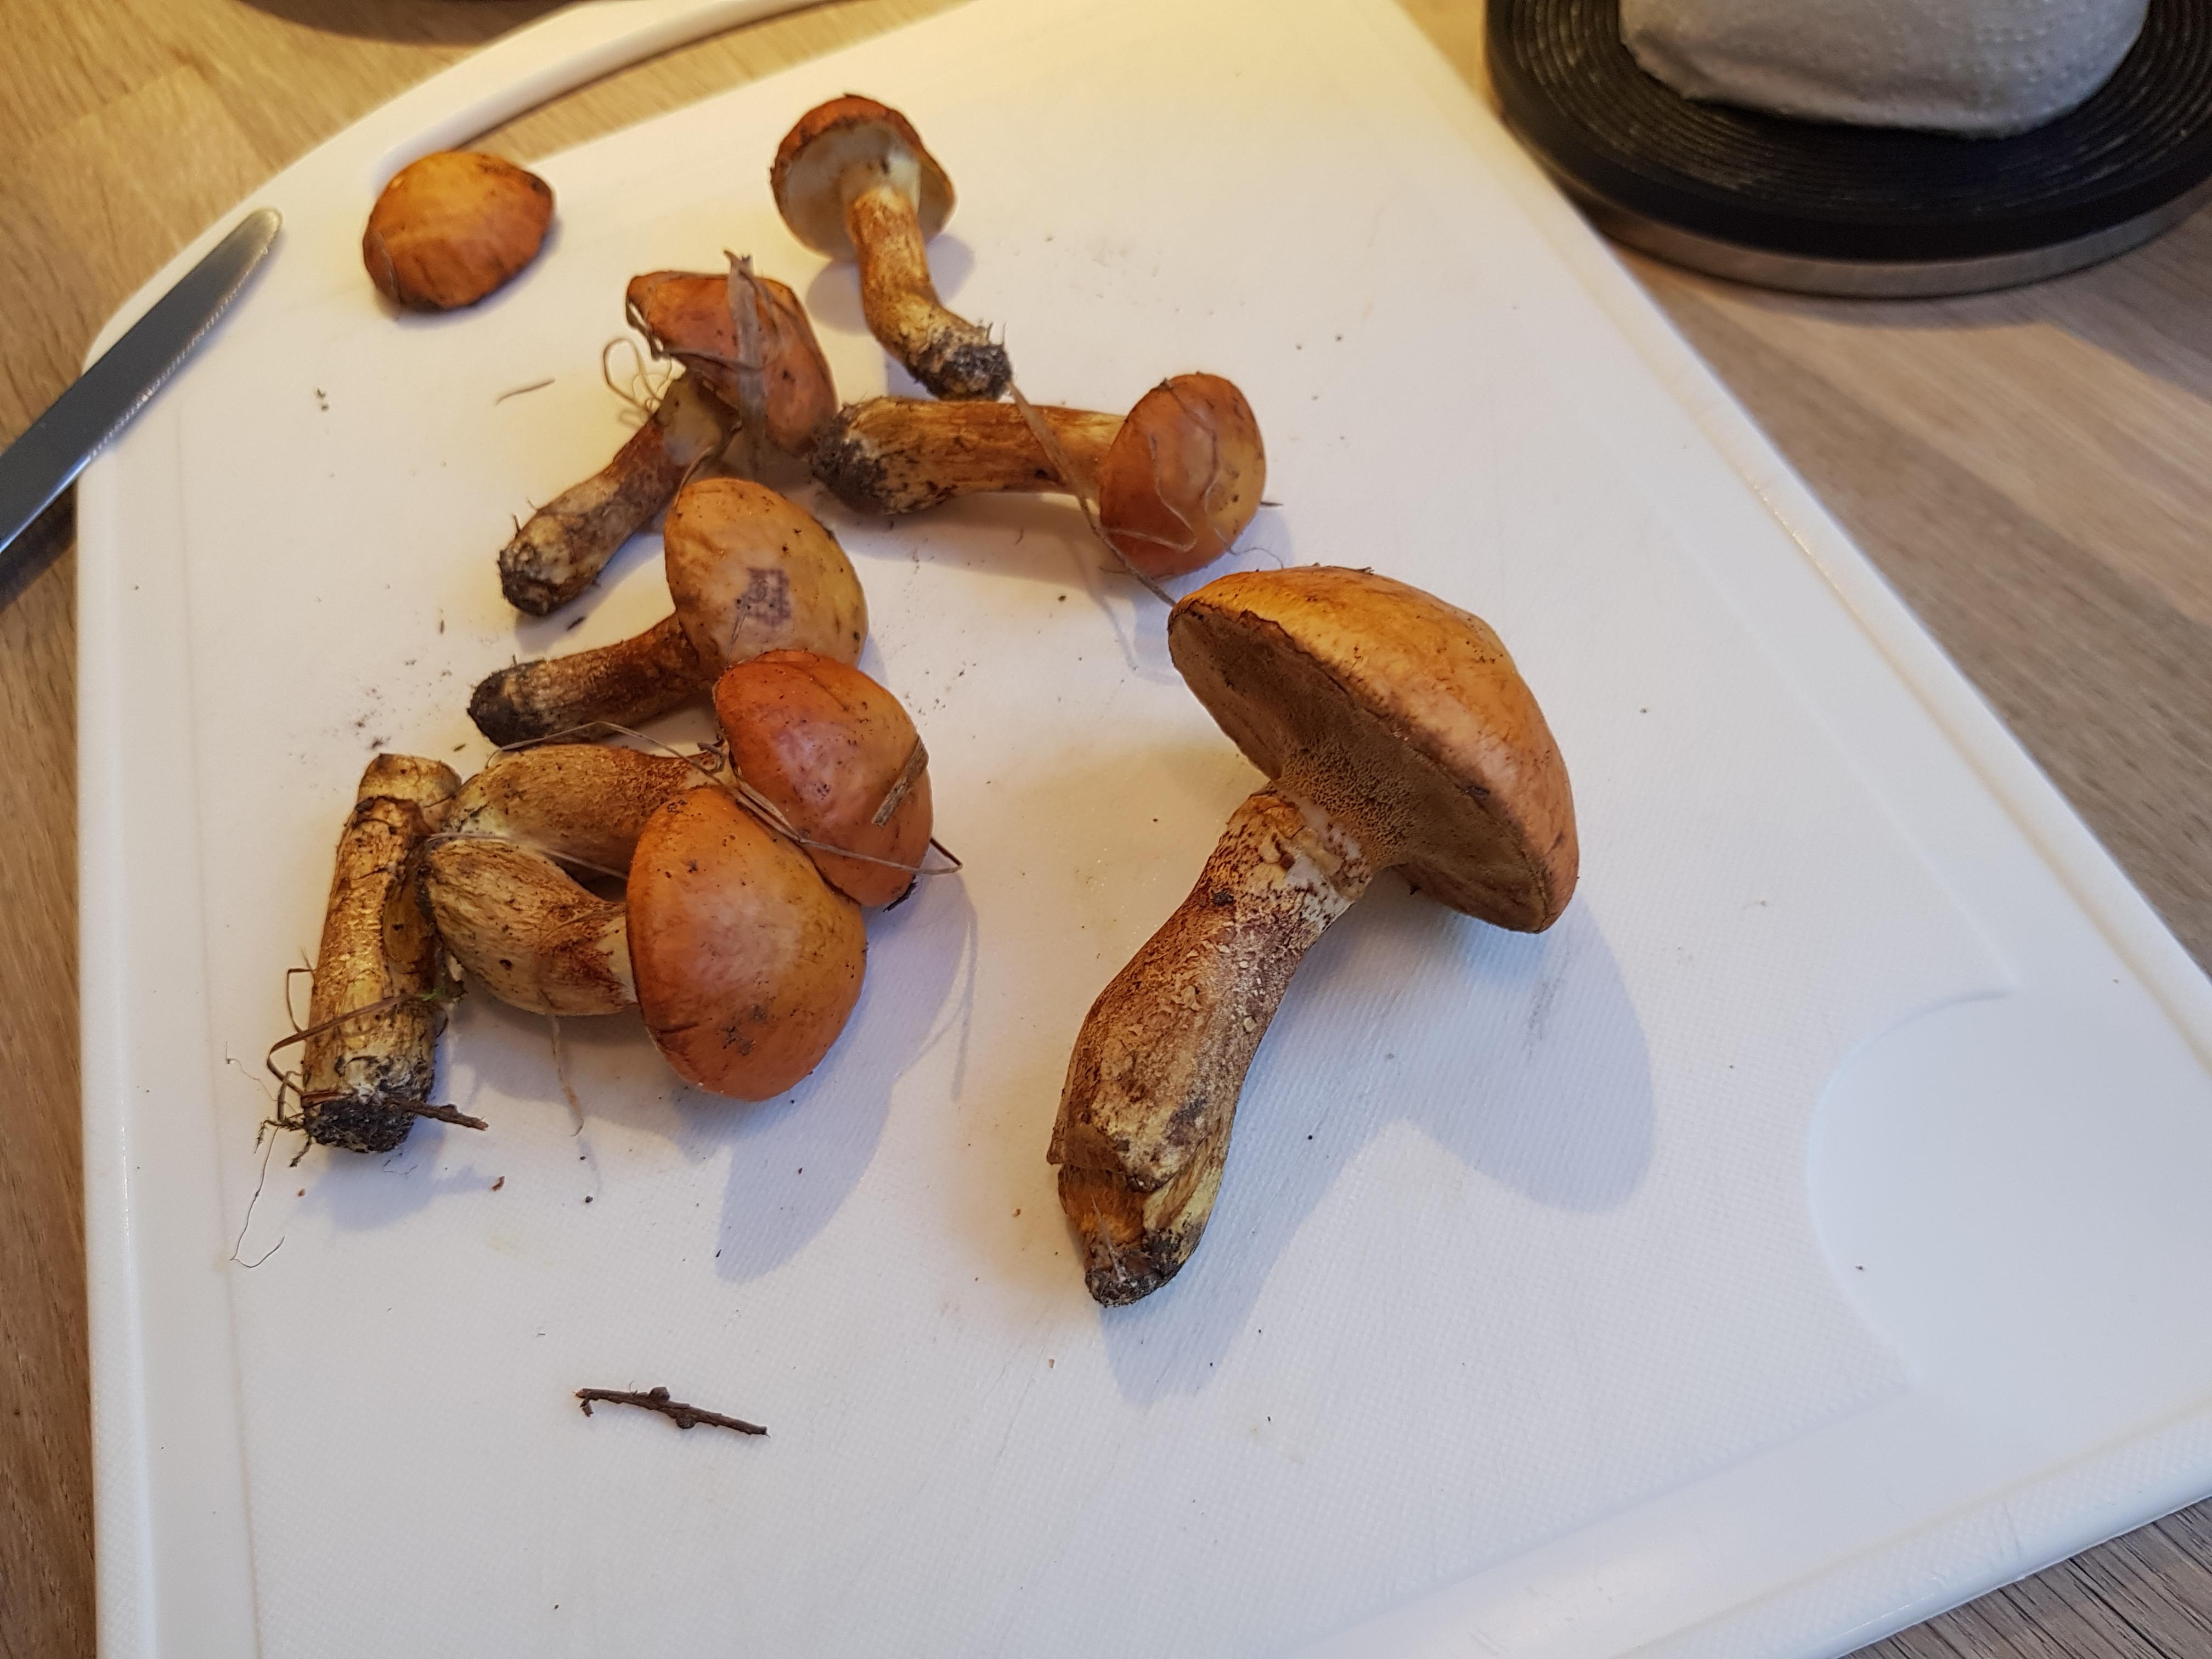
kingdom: Fungi
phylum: Basidiomycota
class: Agaricomycetes
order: Boletales
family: Suillaceae
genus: Suillus
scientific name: Suillus grevillei
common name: lærke-slimrørhat
